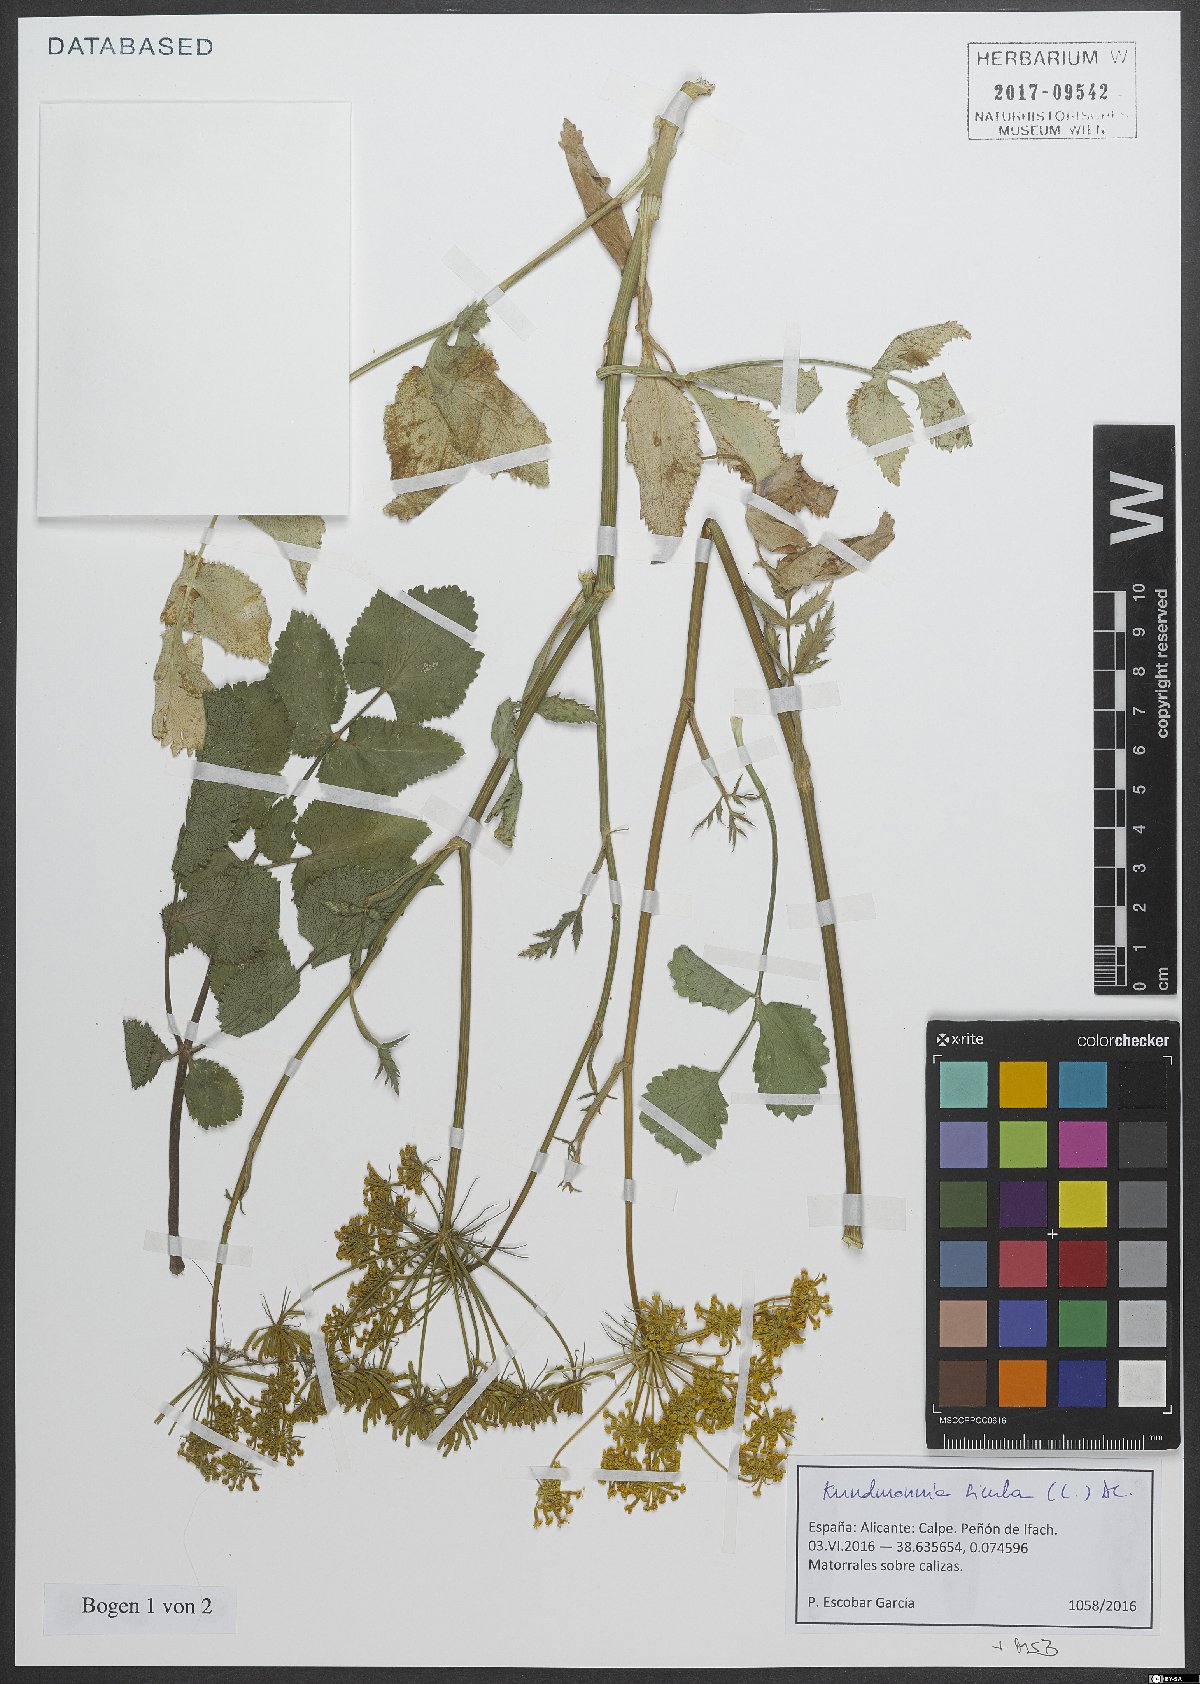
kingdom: Plantae
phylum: Tracheophyta
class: Magnoliopsida
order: Apiales
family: Apiaceae
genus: Kundmannia
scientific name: Kundmannia sicula
